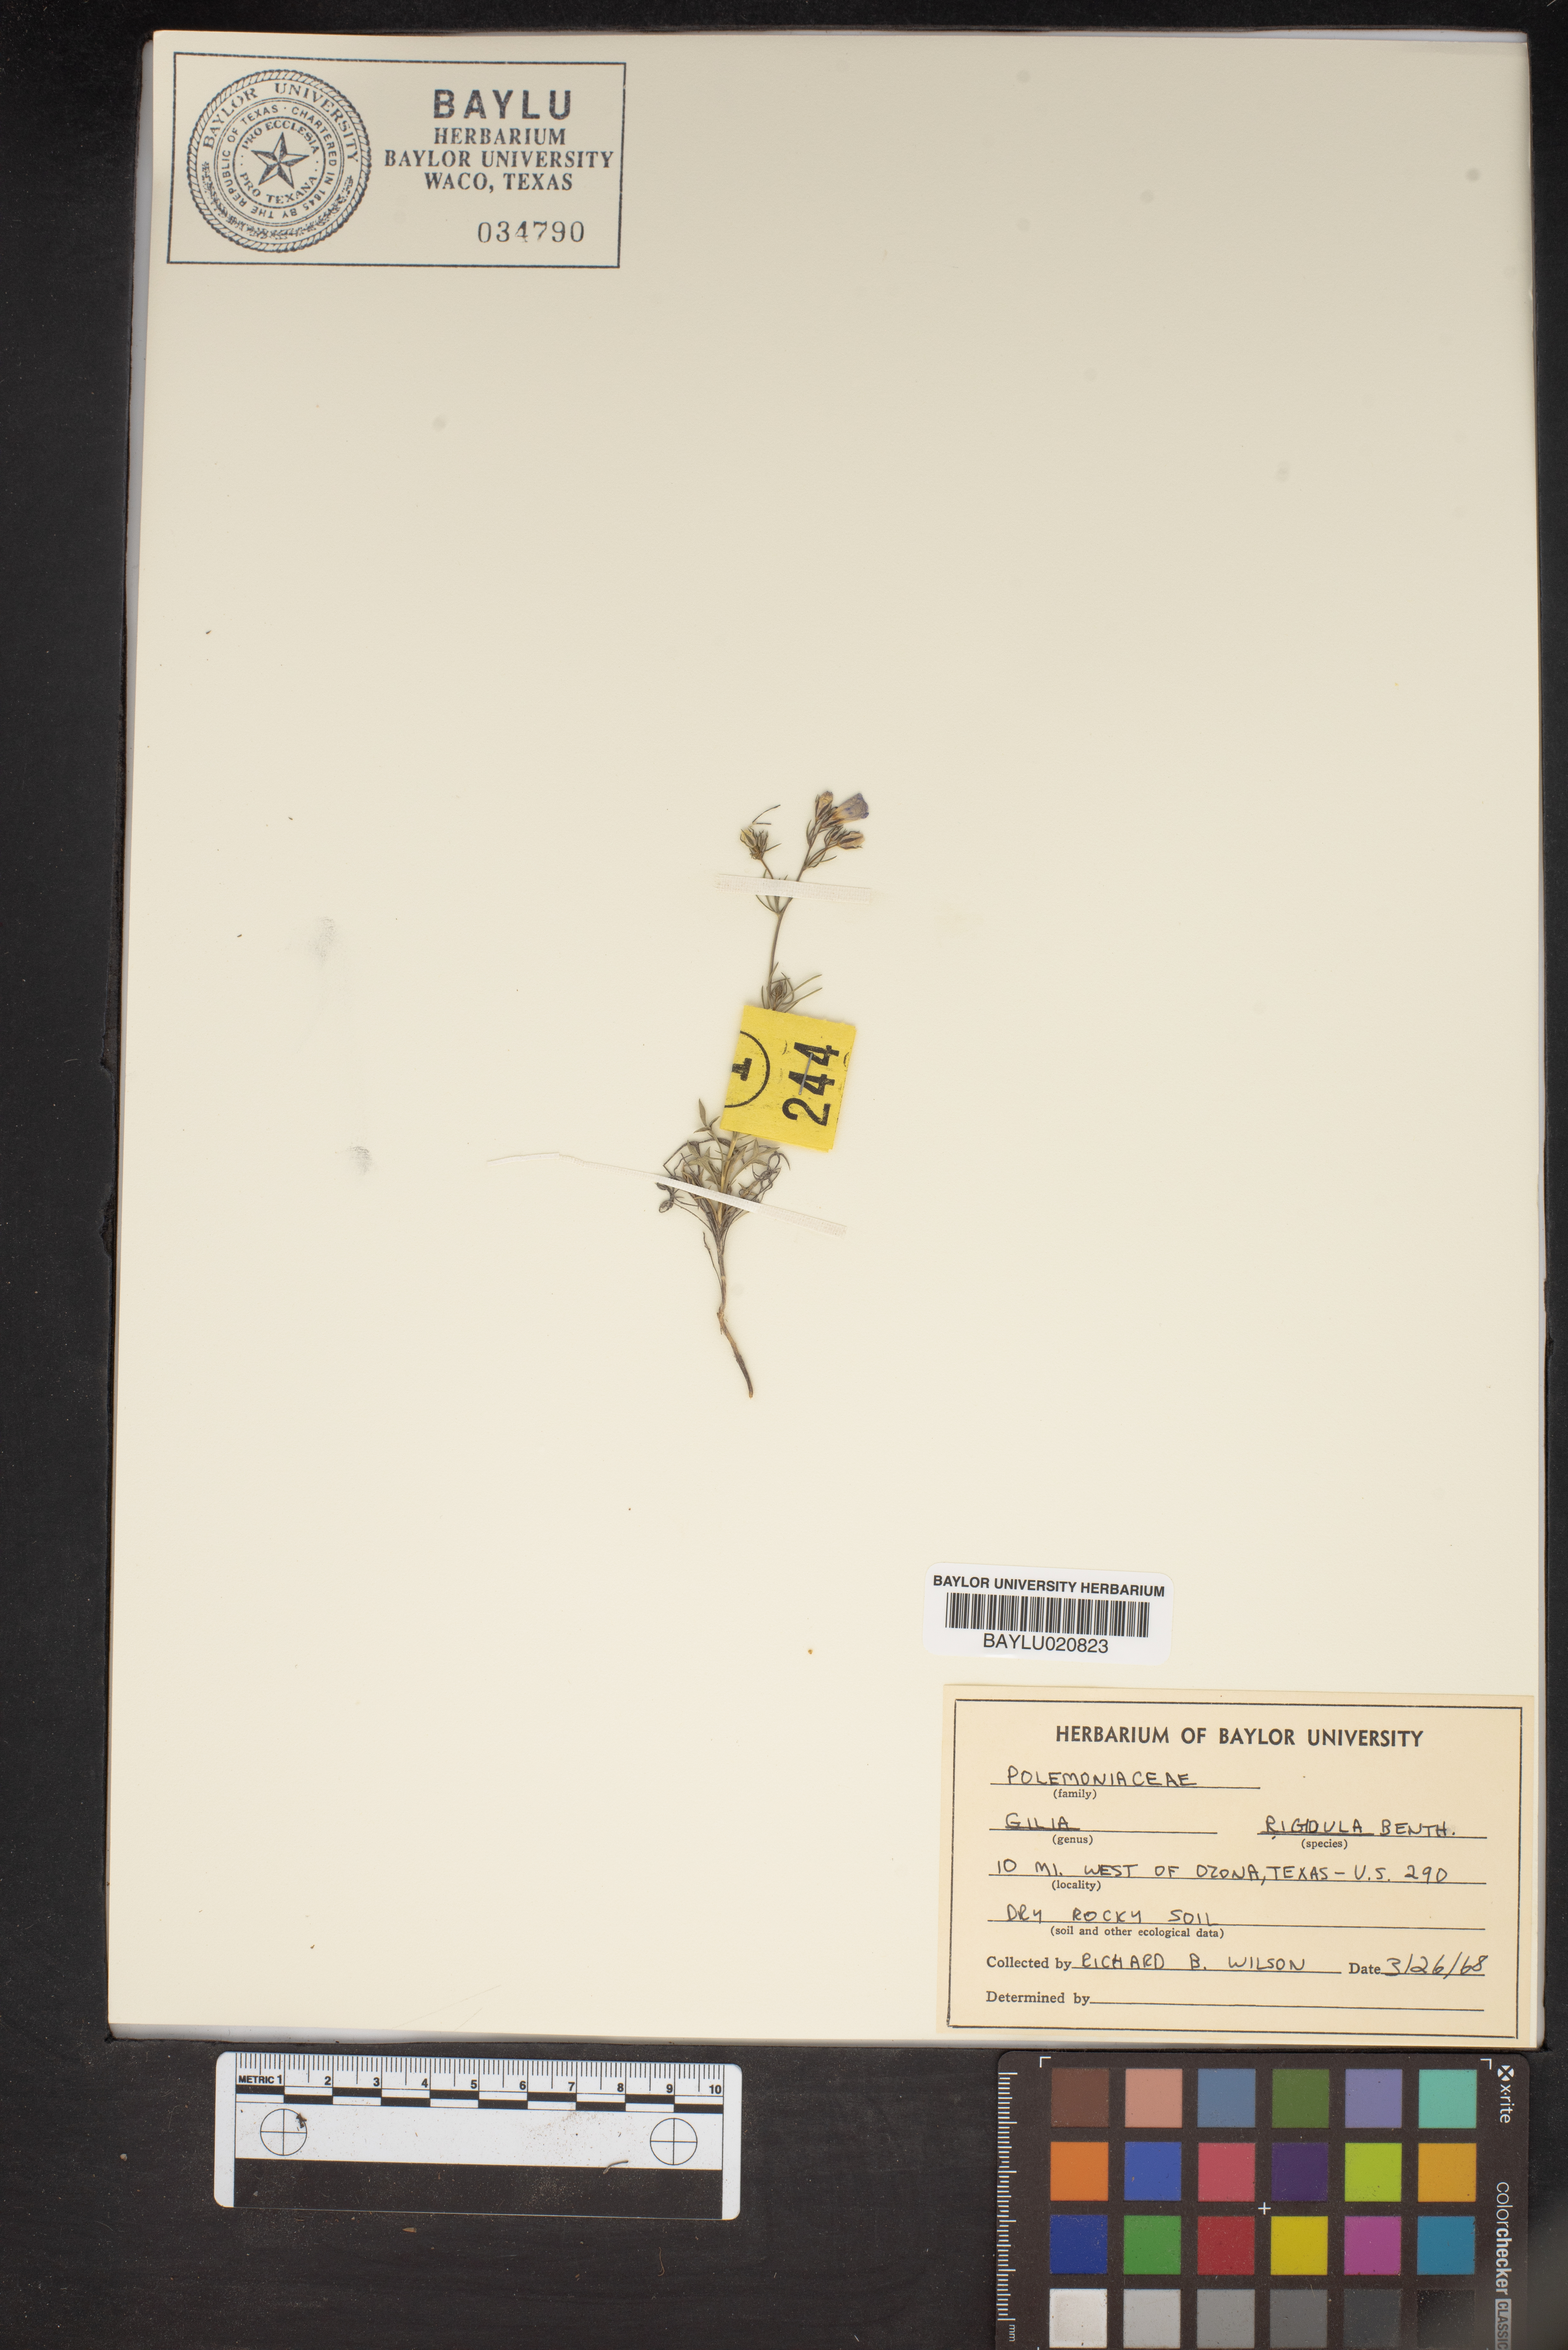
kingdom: Plantae
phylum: Tracheophyta
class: Magnoliopsida
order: Ericales
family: Polemoniaceae
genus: Giliastrum
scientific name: Giliastrum rigidulum
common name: Bluebowls
